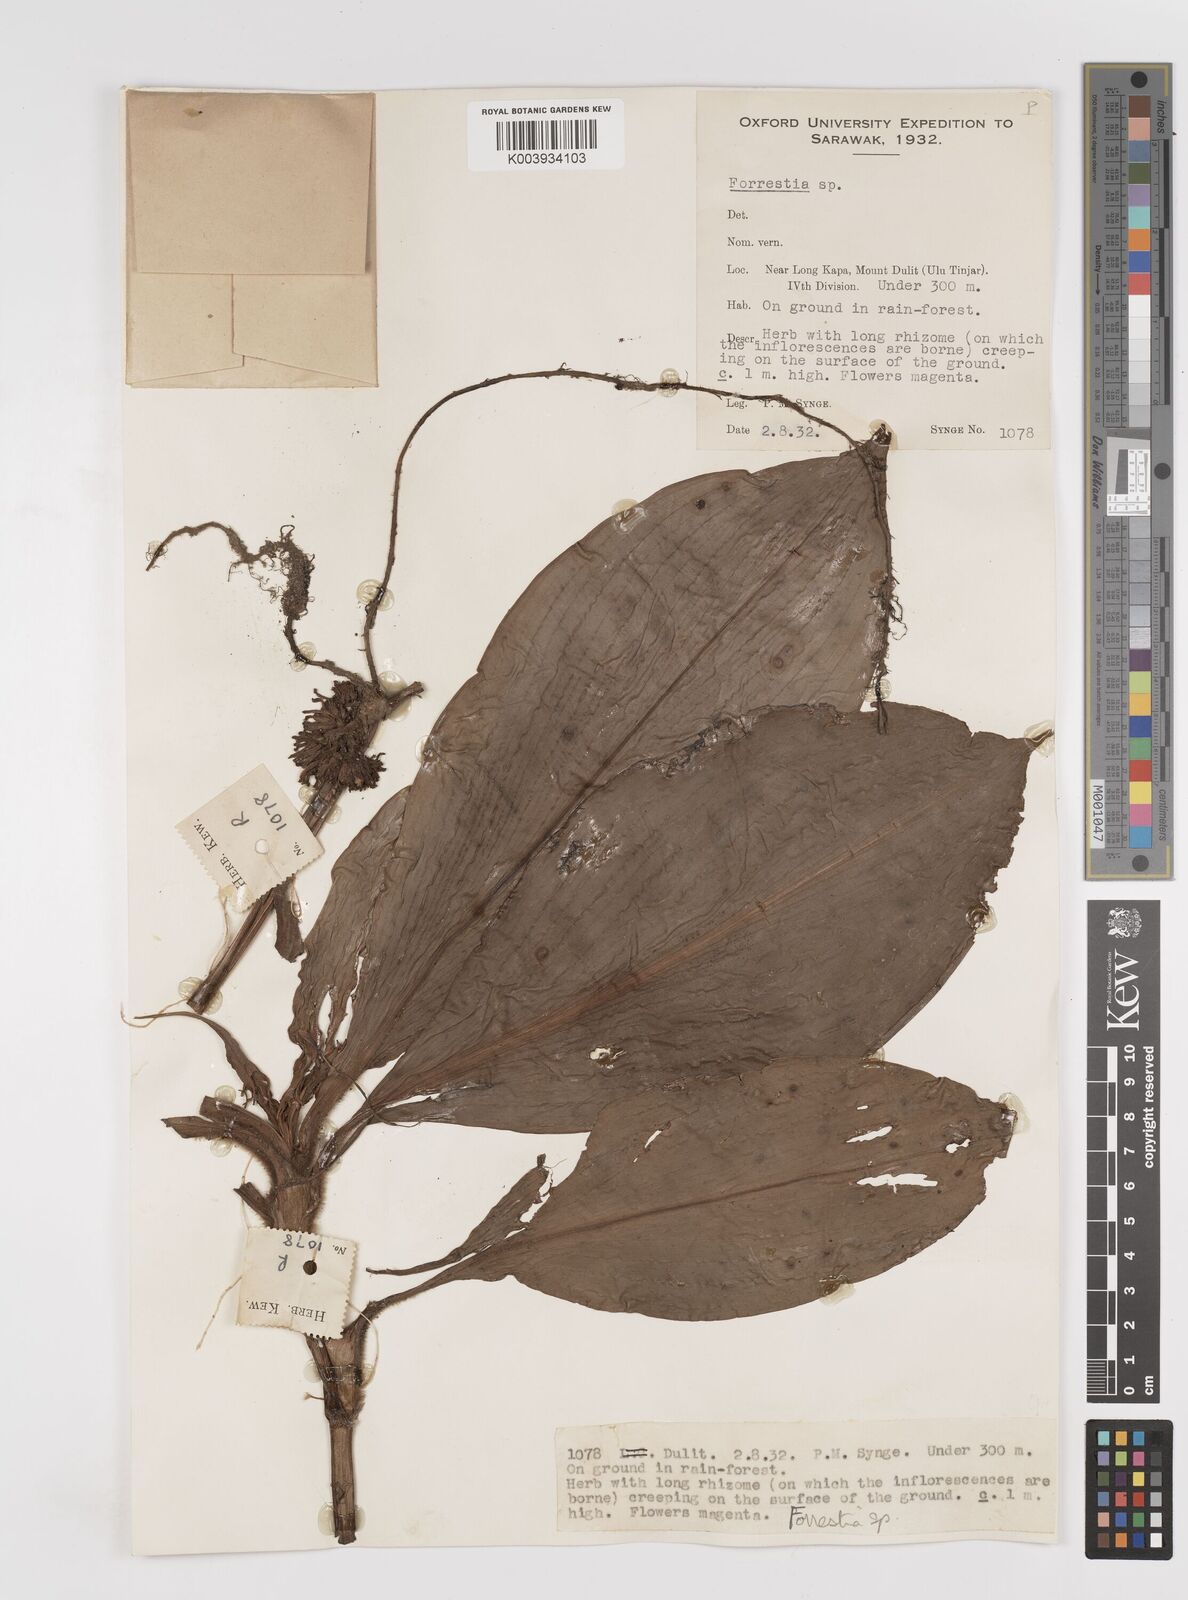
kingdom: Plantae
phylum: Tracheophyta
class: Liliopsida
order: Commelinales
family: Commelinaceae
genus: Amischotolype
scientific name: Amischotolype
